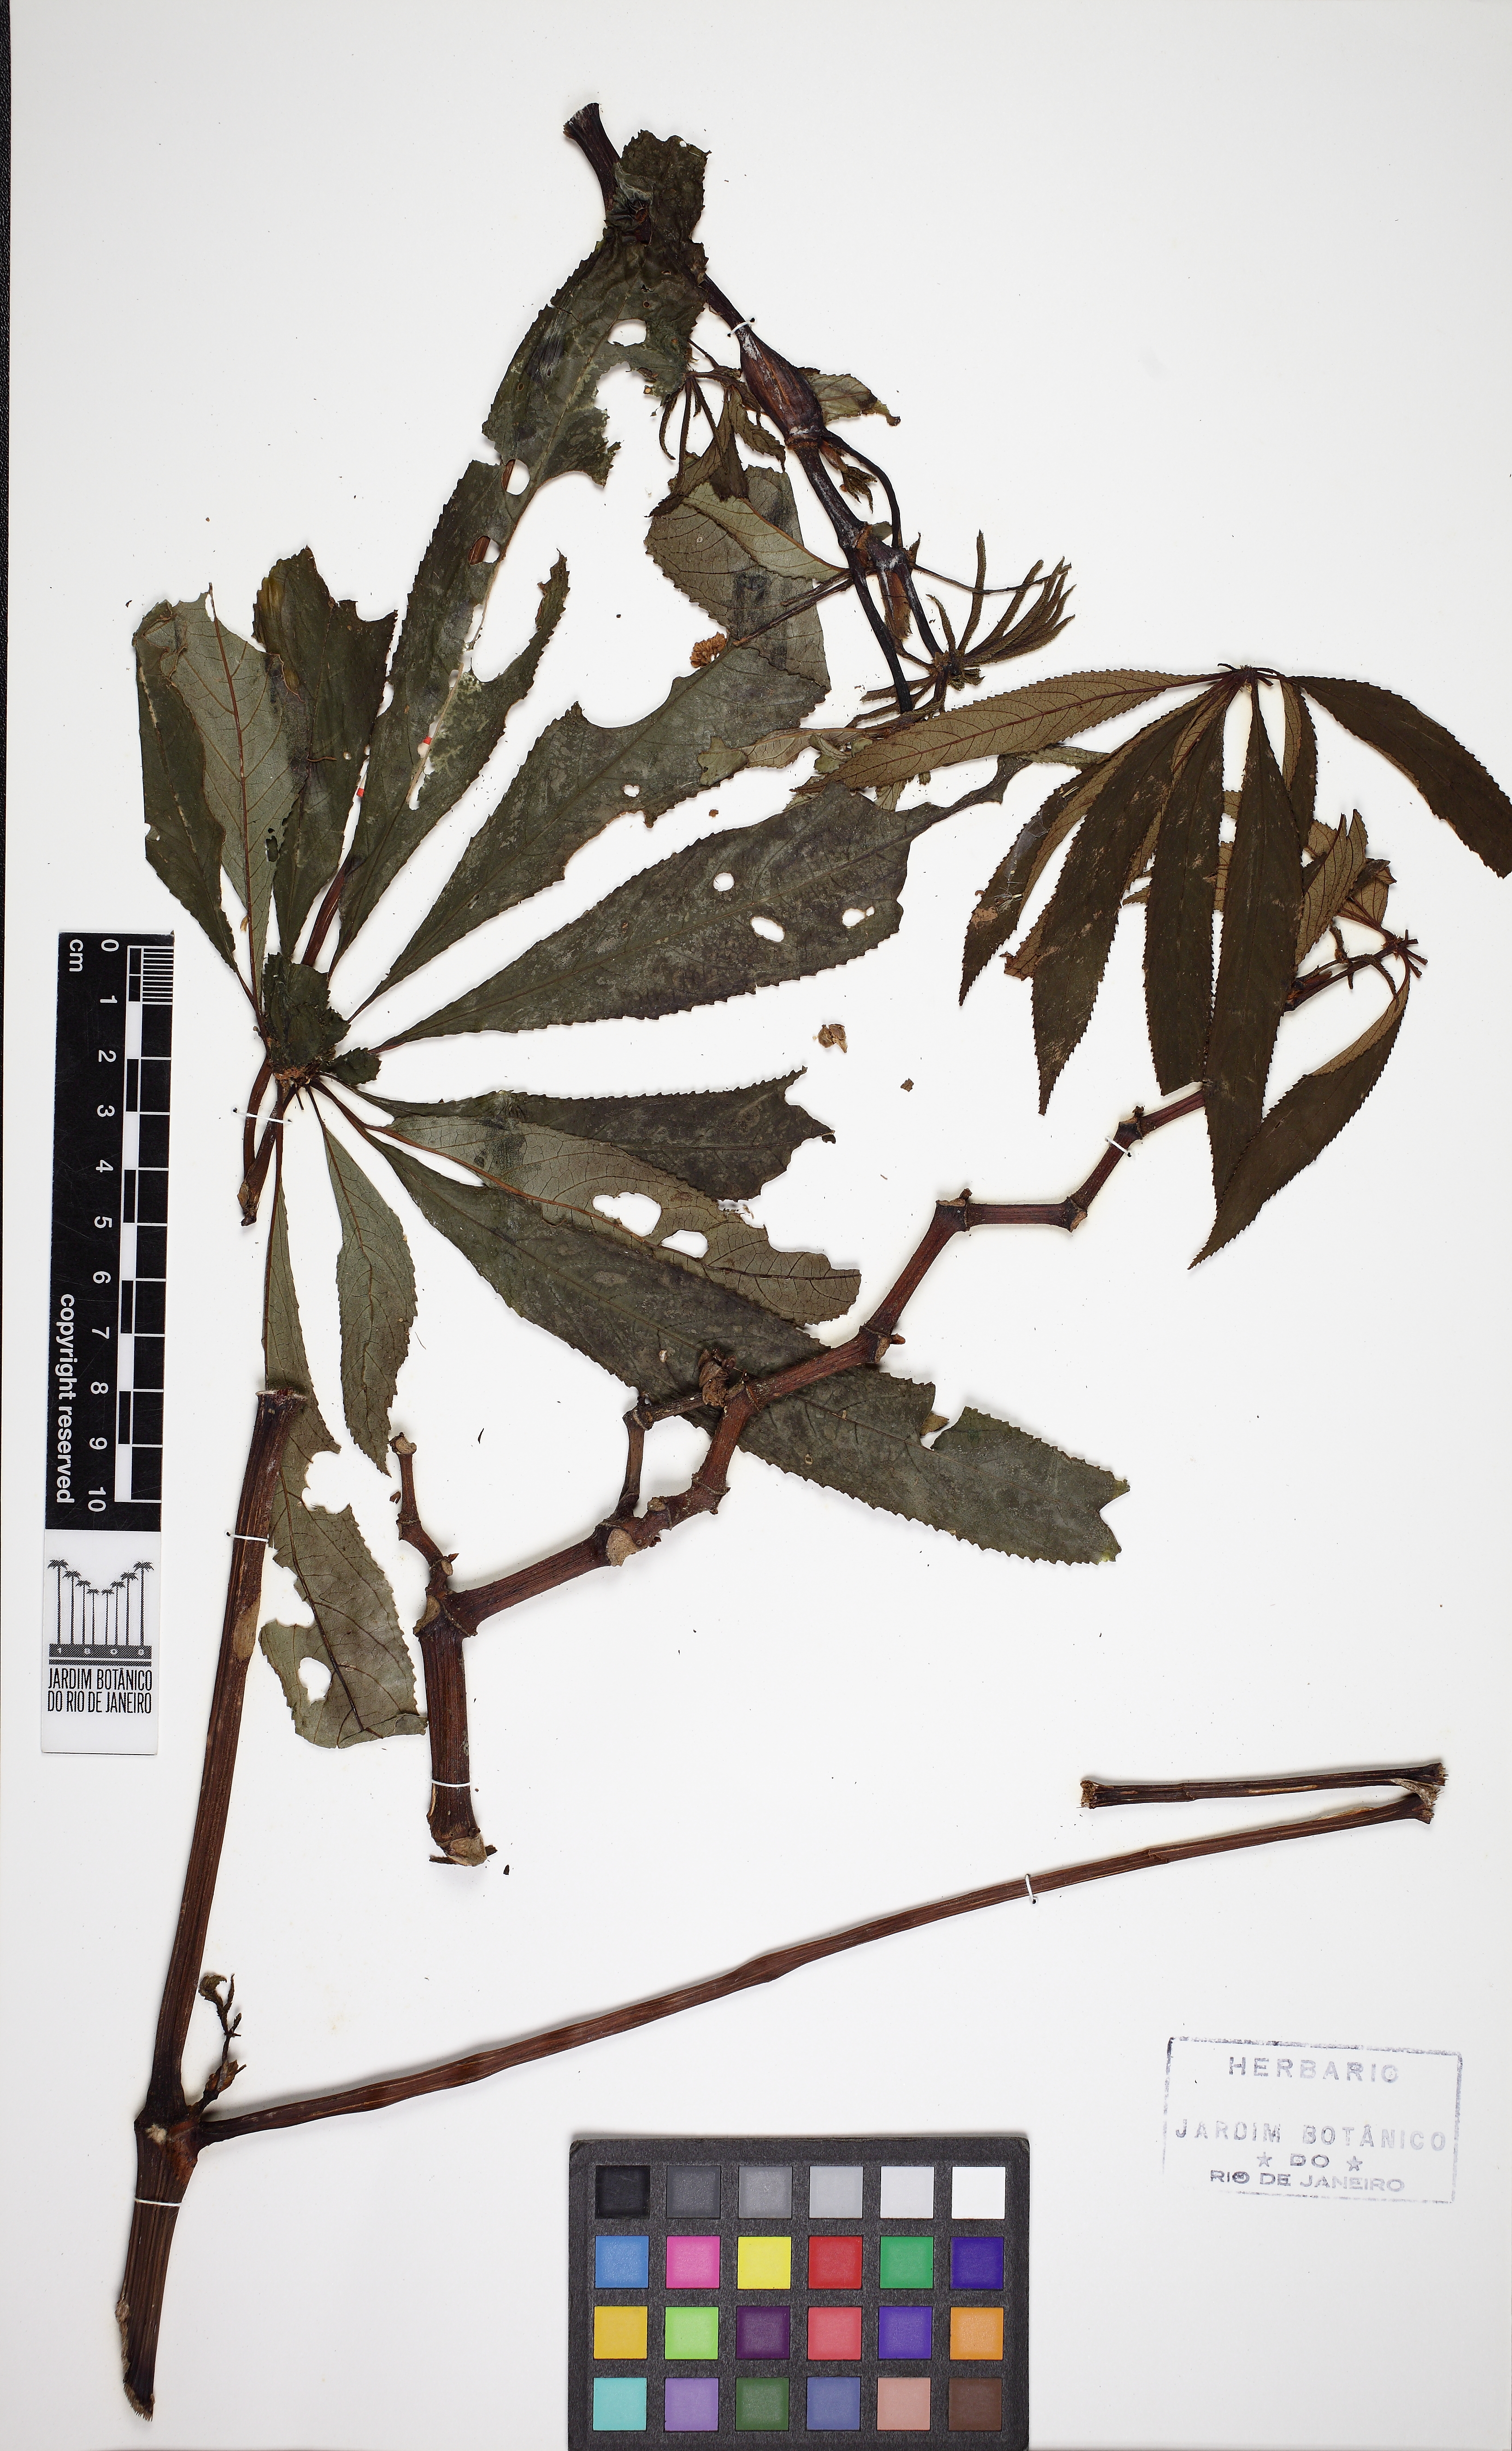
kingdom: Plantae
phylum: Tracheophyta
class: Magnoliopsida
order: Cucurbitales
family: Begoniaceae
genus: Begonia
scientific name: Begonia luxurians
